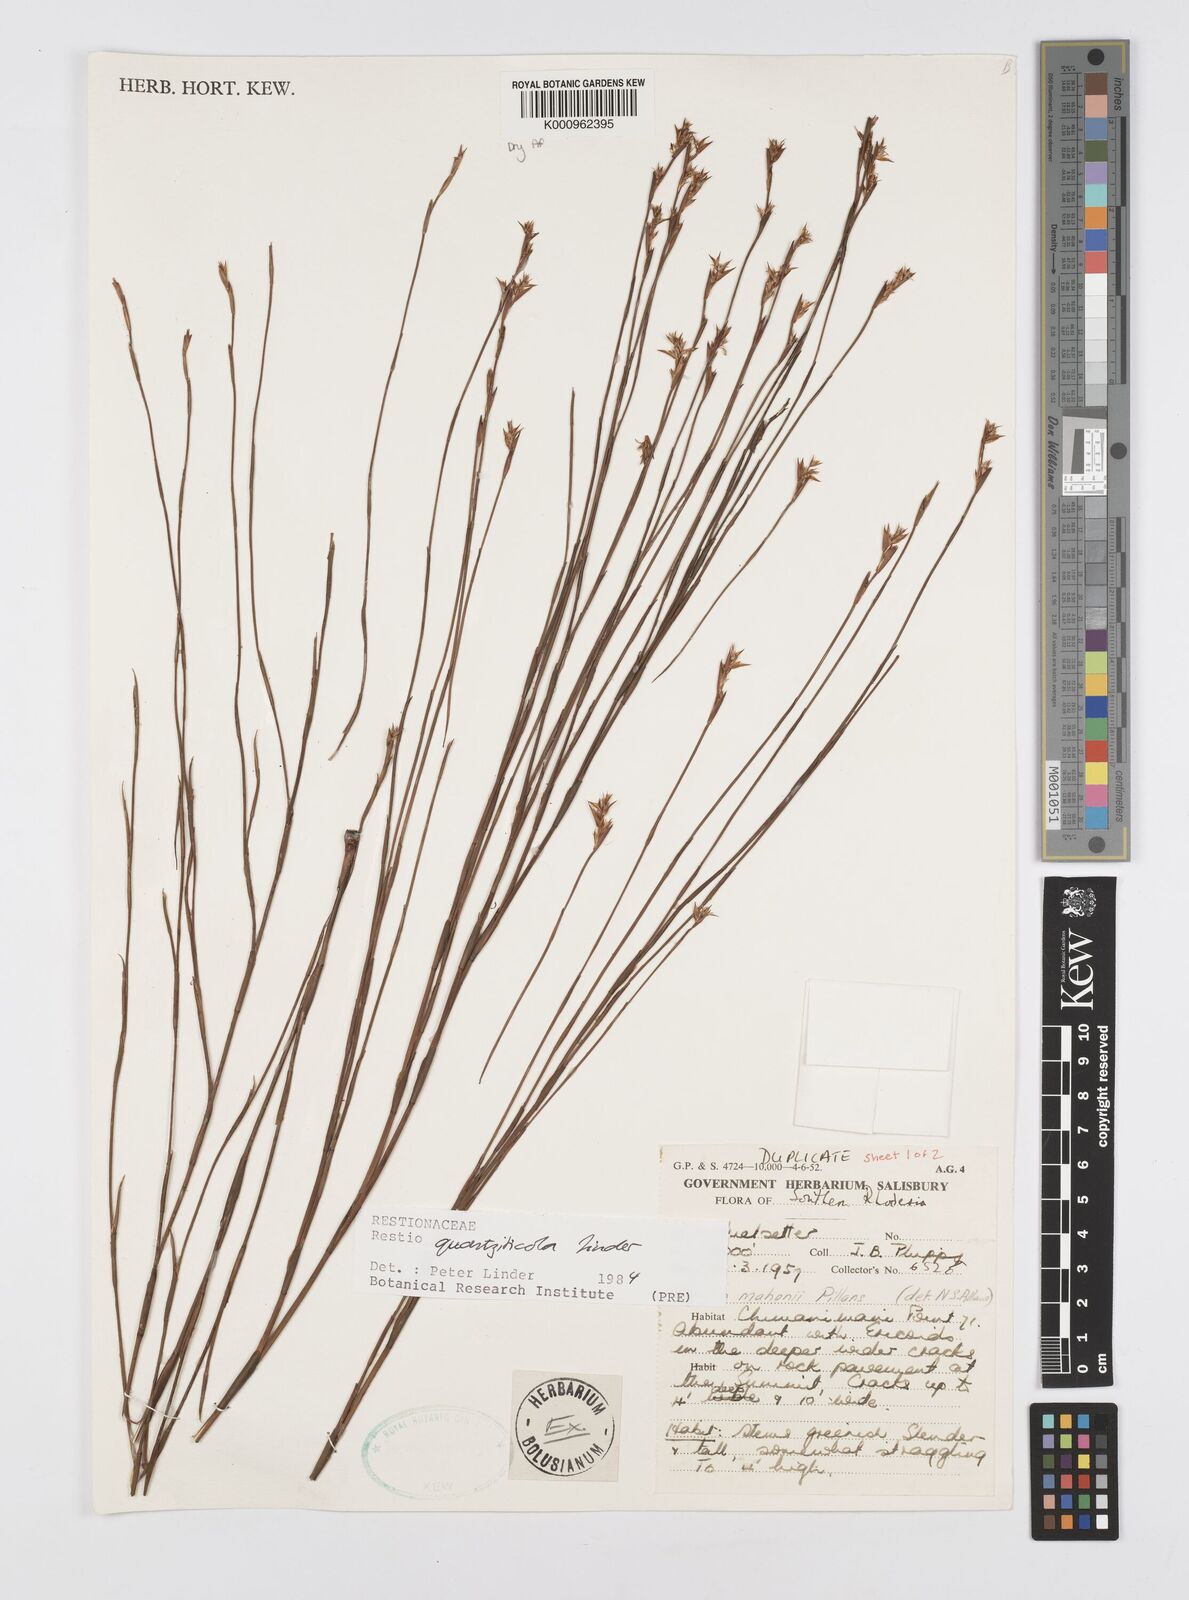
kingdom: Plantae
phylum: Tracheophyta
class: Liliopsida
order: Poales
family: Restionaceae
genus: Platycaulos
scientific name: Platycaulos quartziticola
